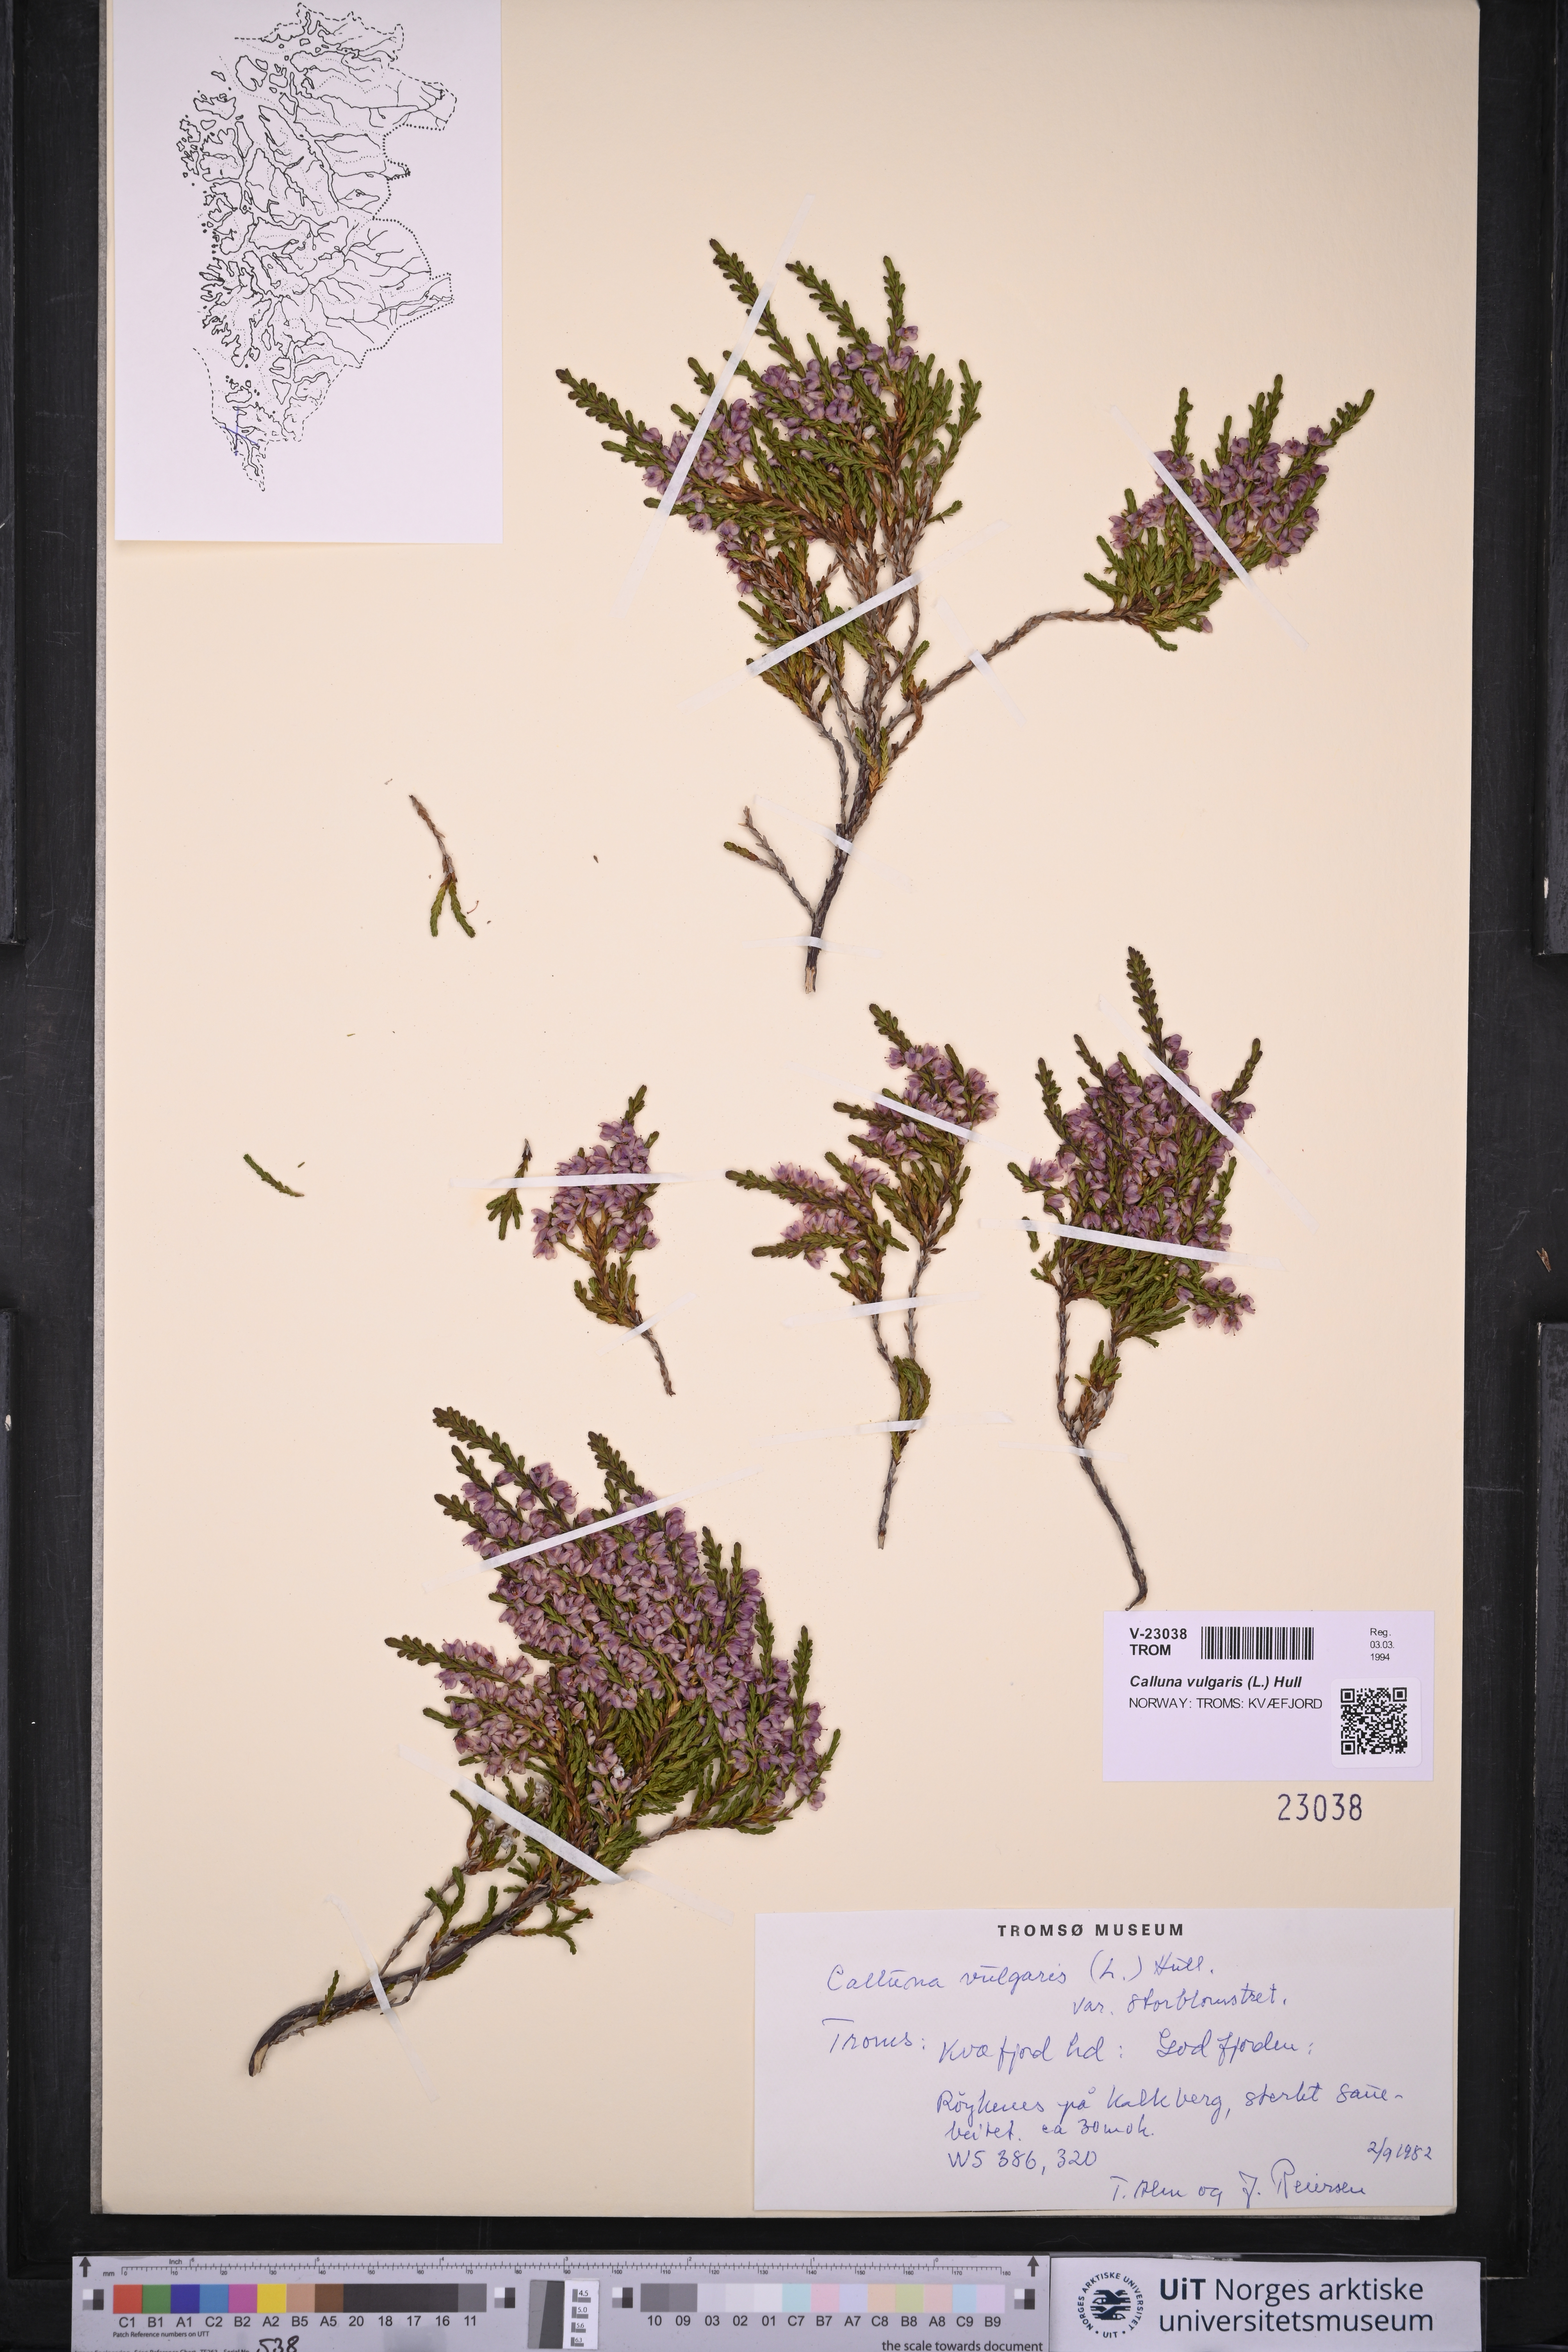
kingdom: Plantae
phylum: Tracheophyta
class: Magnoliopsida
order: Ericales
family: Ericaceae
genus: Calluna
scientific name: Calluna vulgaris
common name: Heather
